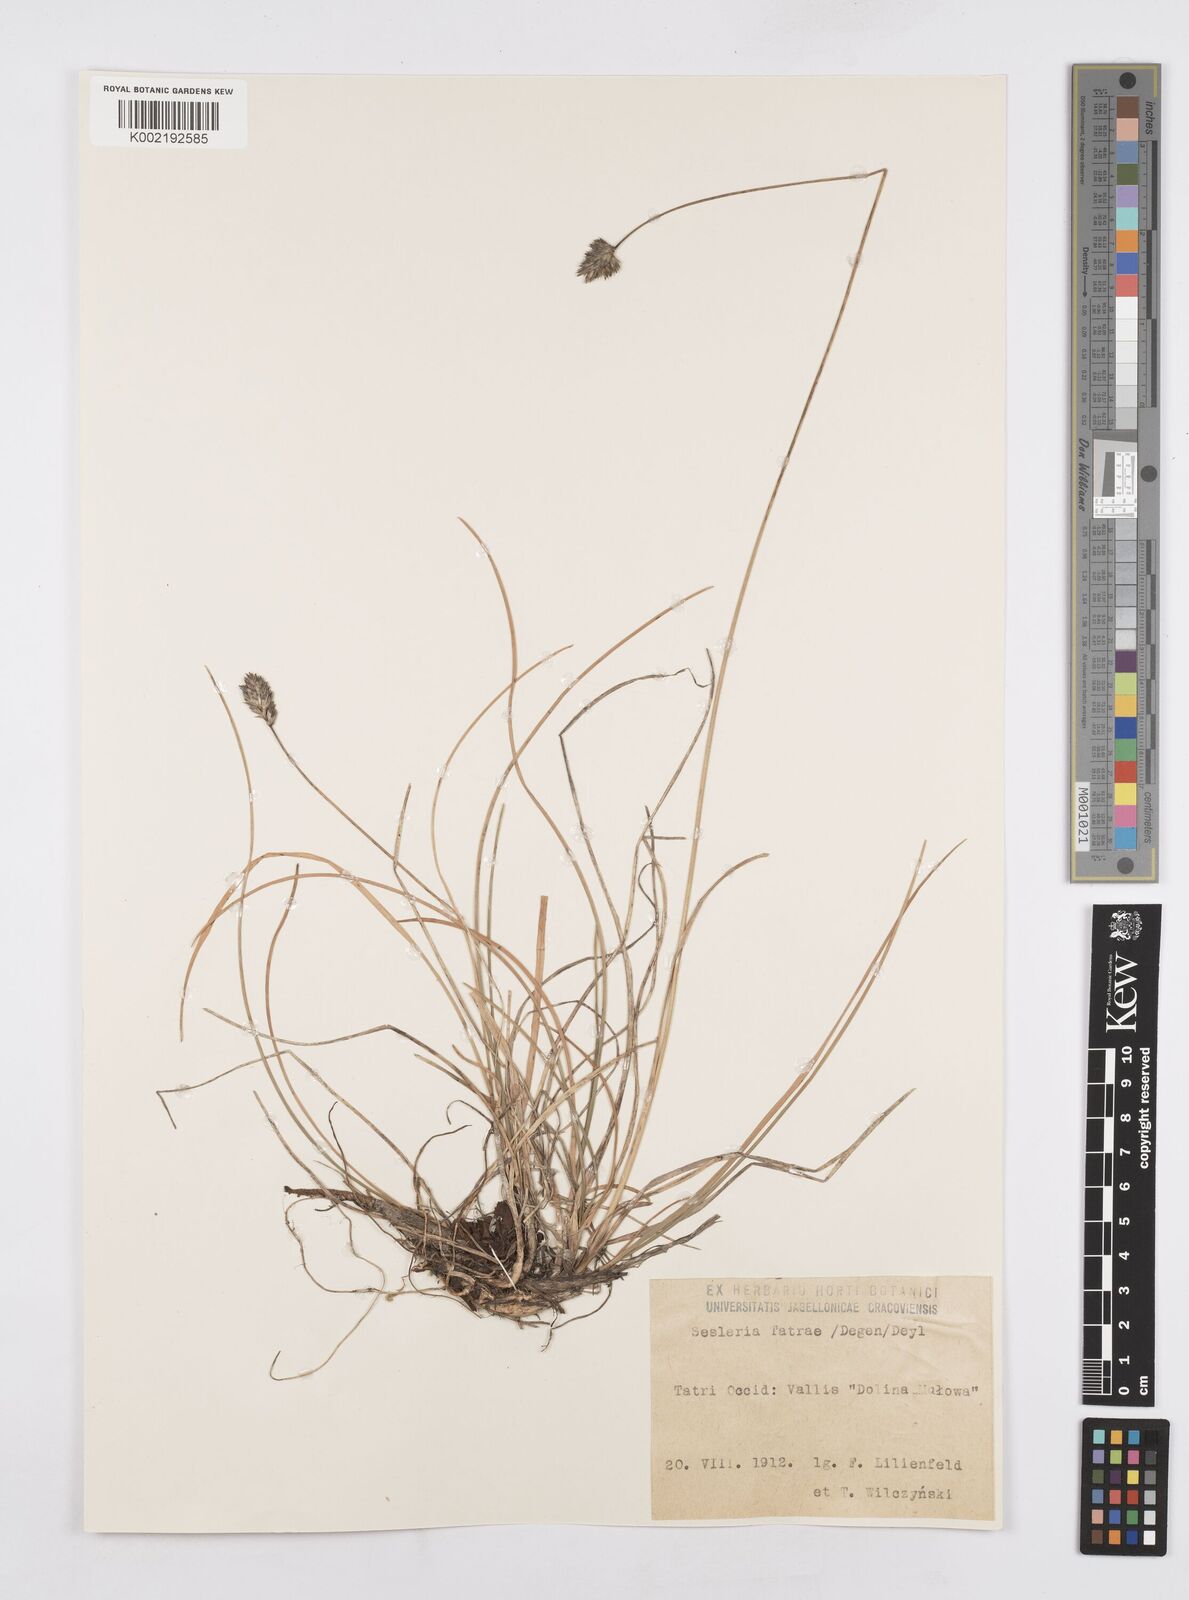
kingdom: Plantae
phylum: Tracheophyta
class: Liliopsida
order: Poales
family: Poaceae
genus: Sesleria
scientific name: Sesleria tatrae
